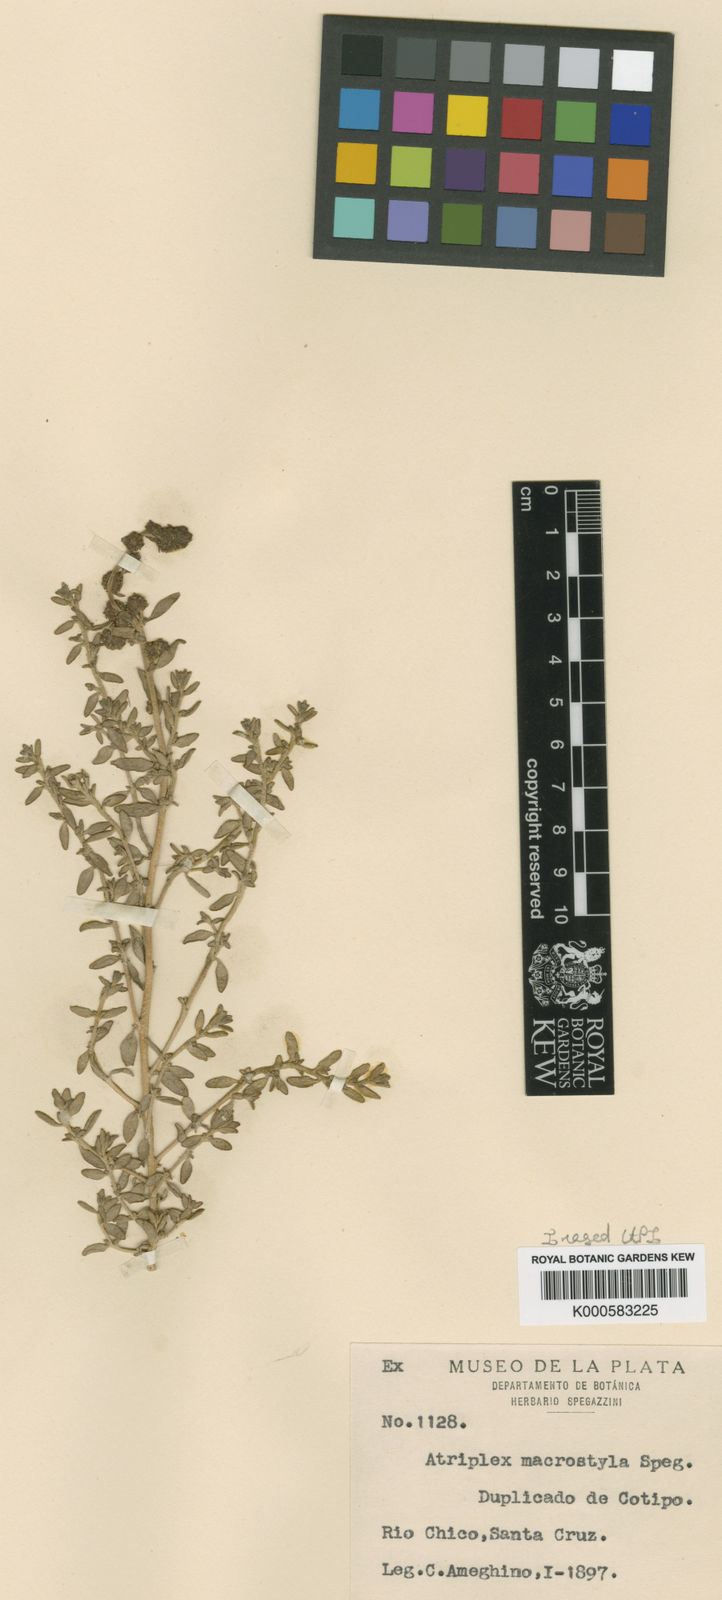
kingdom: Plantae
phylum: Tracheophyta
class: Magnoliopsida
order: Caryophyllales
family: Amaranthaceae
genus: Atriplex
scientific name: Atriplex vulgatissima
